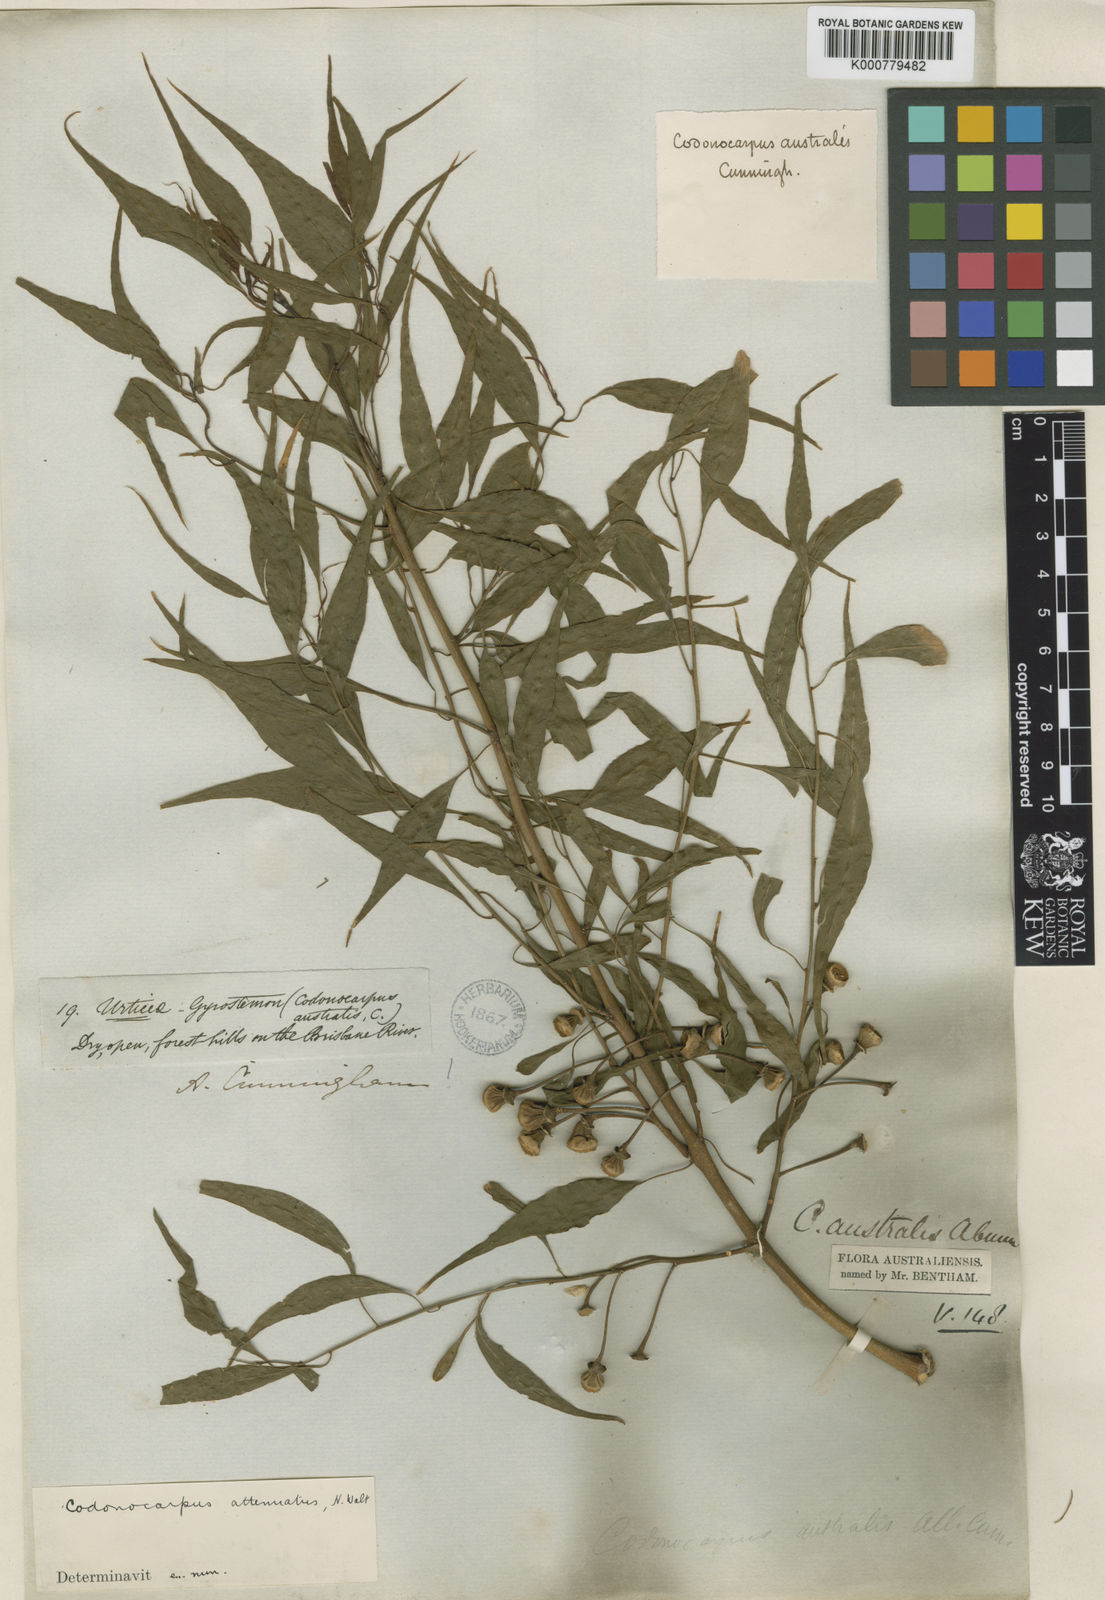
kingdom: Plantae
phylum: Tracheophyta
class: Magnoliopsida
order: Brassicales
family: Gyrostemonaceae
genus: Codonocarpus
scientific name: Codonocarpus attenuatus
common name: Bell-fruit-tree
